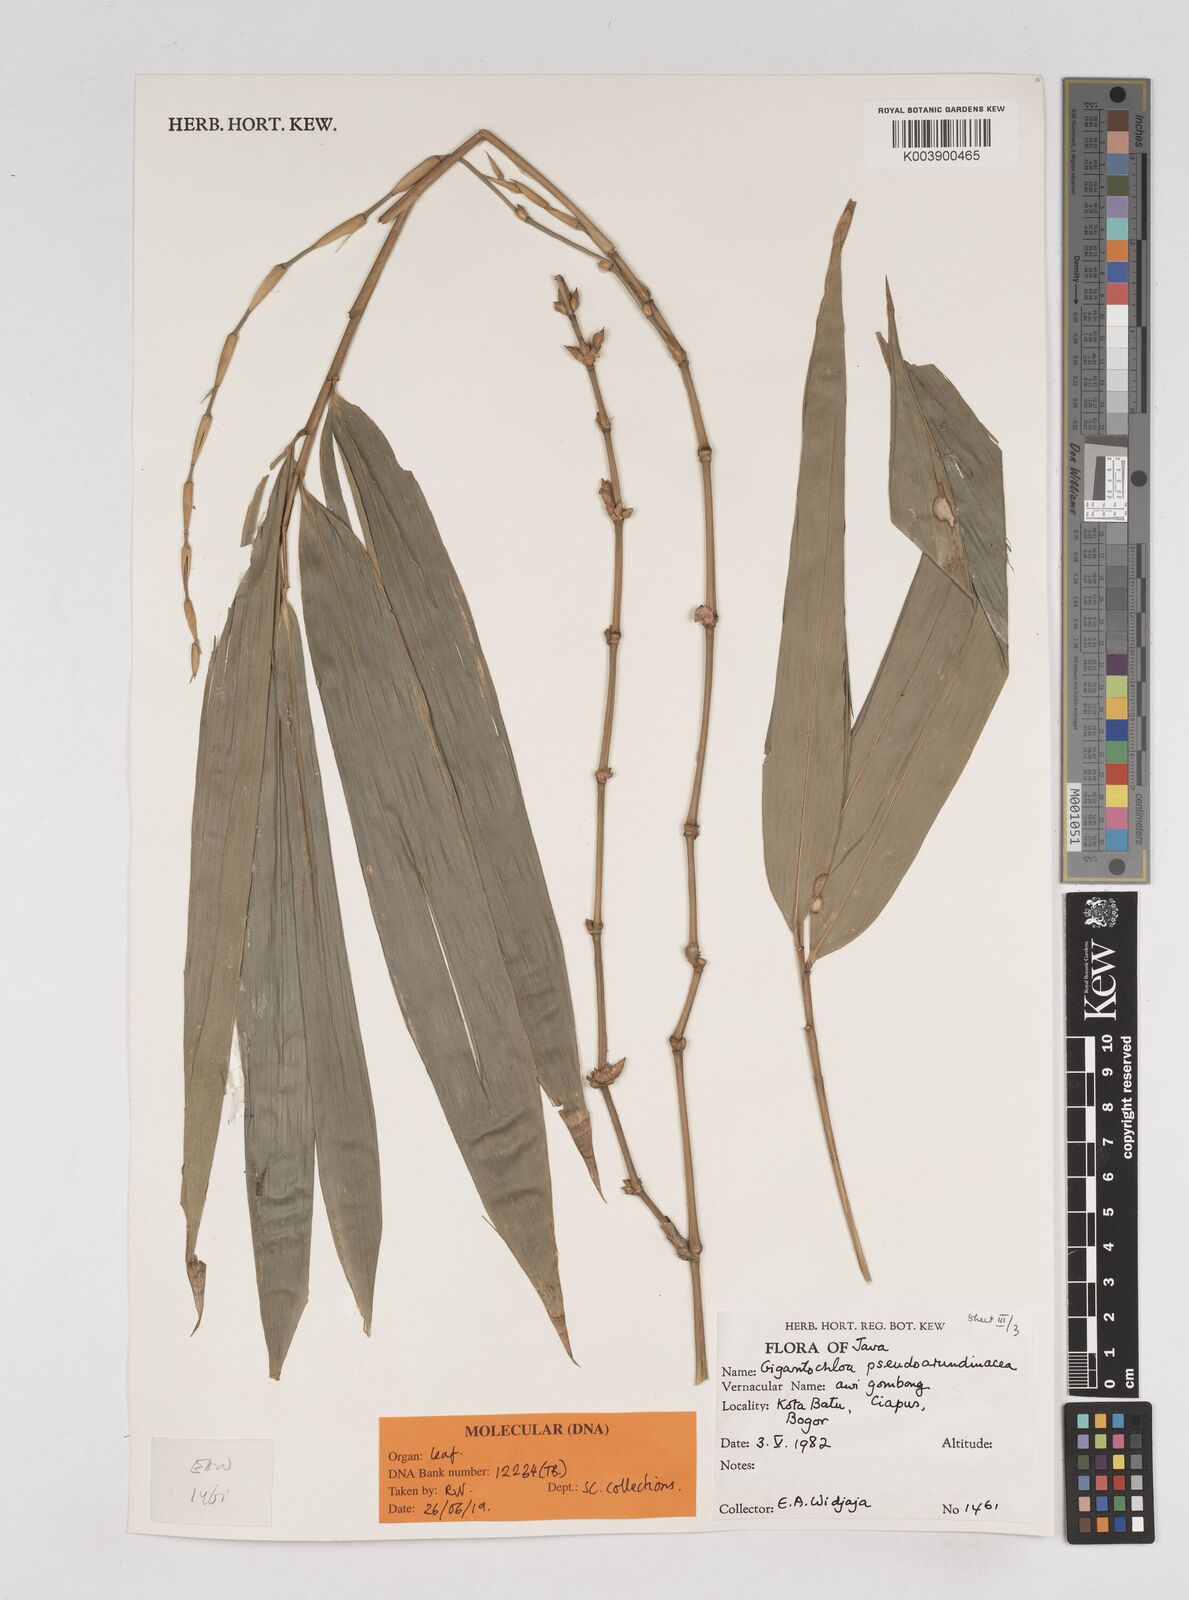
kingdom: Plantae
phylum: Tracheophyta
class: Liliopsida
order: Poales
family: Poaceae
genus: Gigantochloa
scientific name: Gigantochloa verticillata
